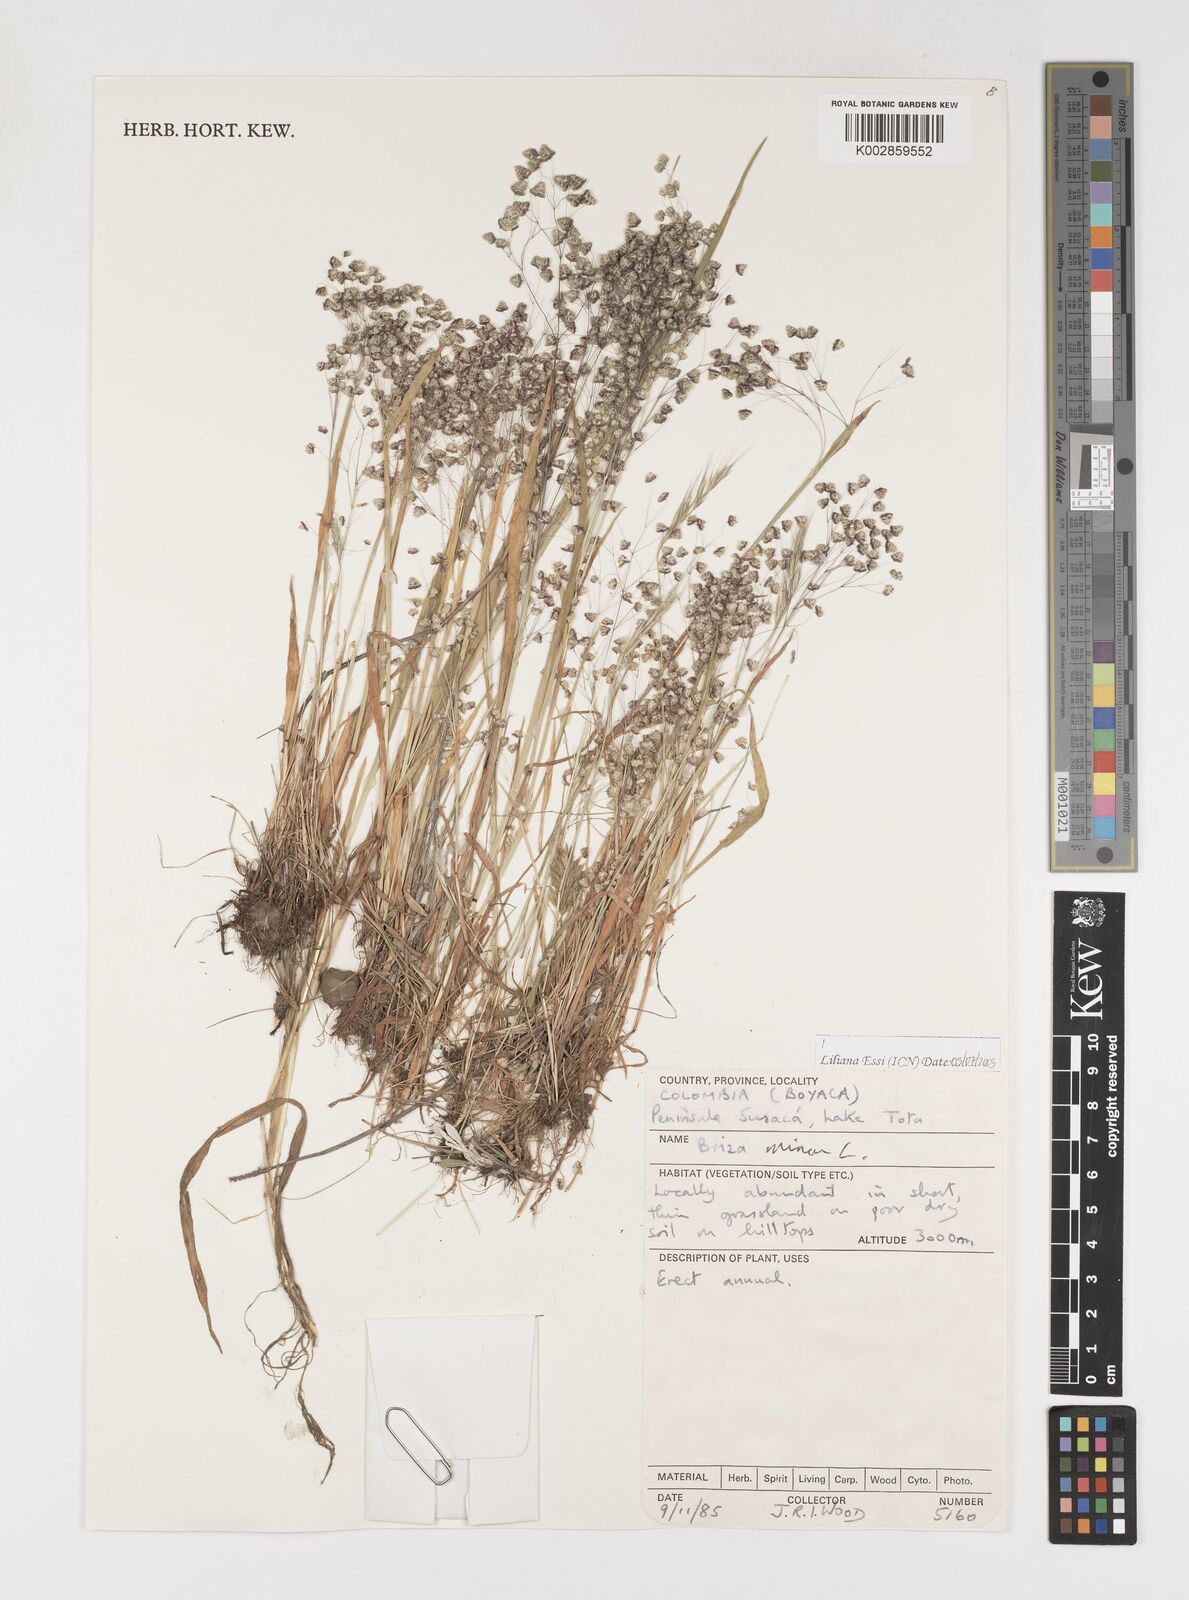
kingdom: Plantae
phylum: Tracheophyta
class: Liliopsida
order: Poales
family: Poaceae
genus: Briza
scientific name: Briza minor
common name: Lesser quaking-grass
